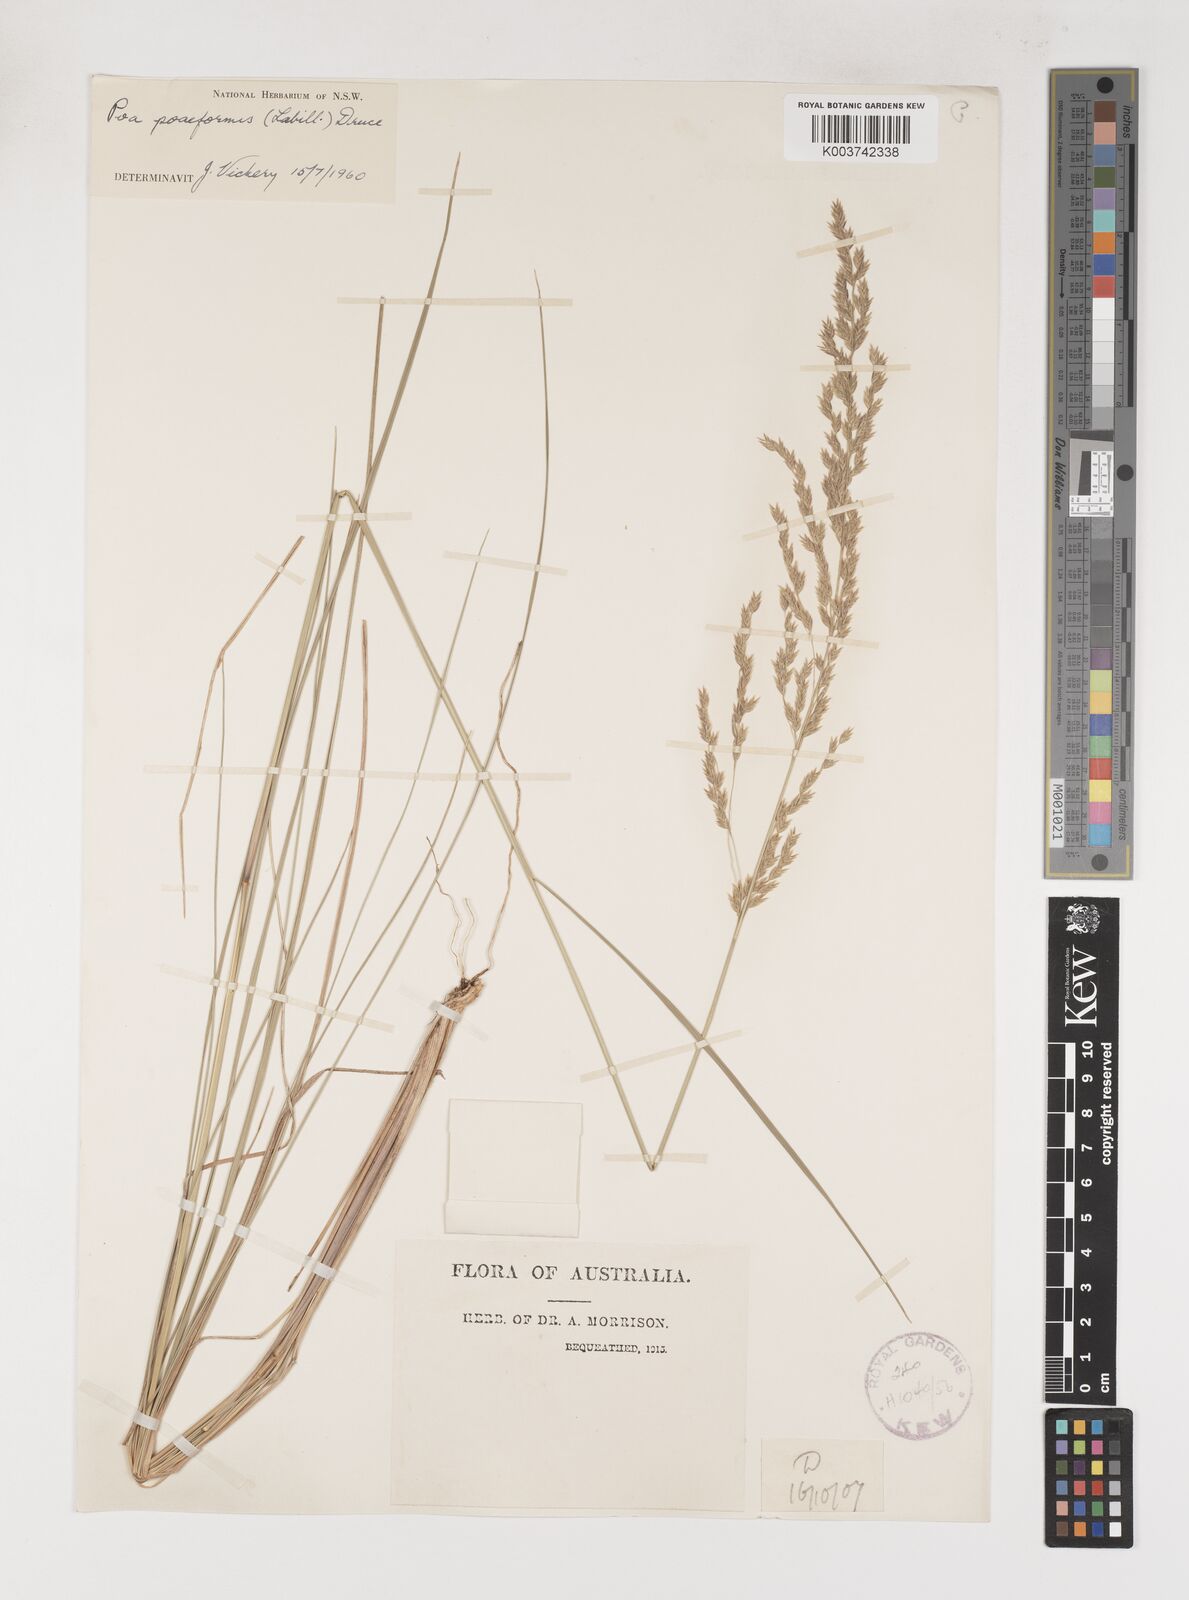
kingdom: Plantae
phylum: Tracheophyta
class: Liliopsida
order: Poales
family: Poaceae
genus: Poa
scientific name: Poa poiformis
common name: Tussock poa
